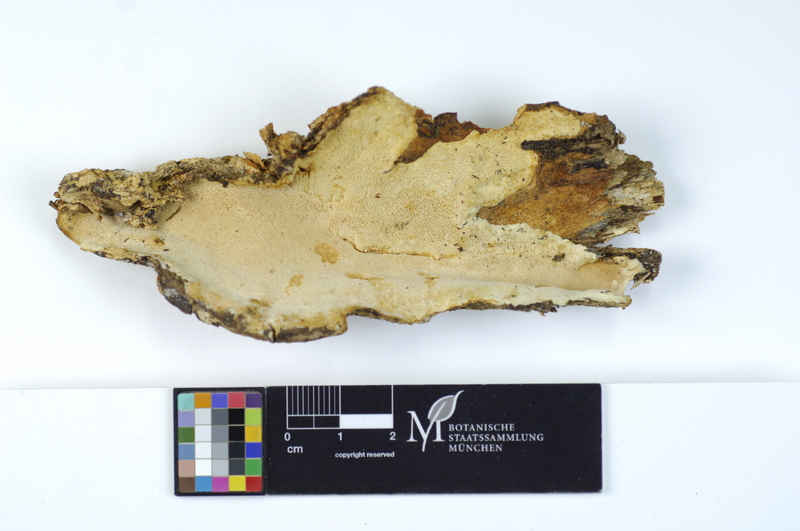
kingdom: Fungi
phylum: Basidiomycota
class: Agaricomycetes
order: Polyporales
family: Polyporaceae
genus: Perenniporia
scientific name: Perenniporia medulla-panis
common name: Pancake crust
